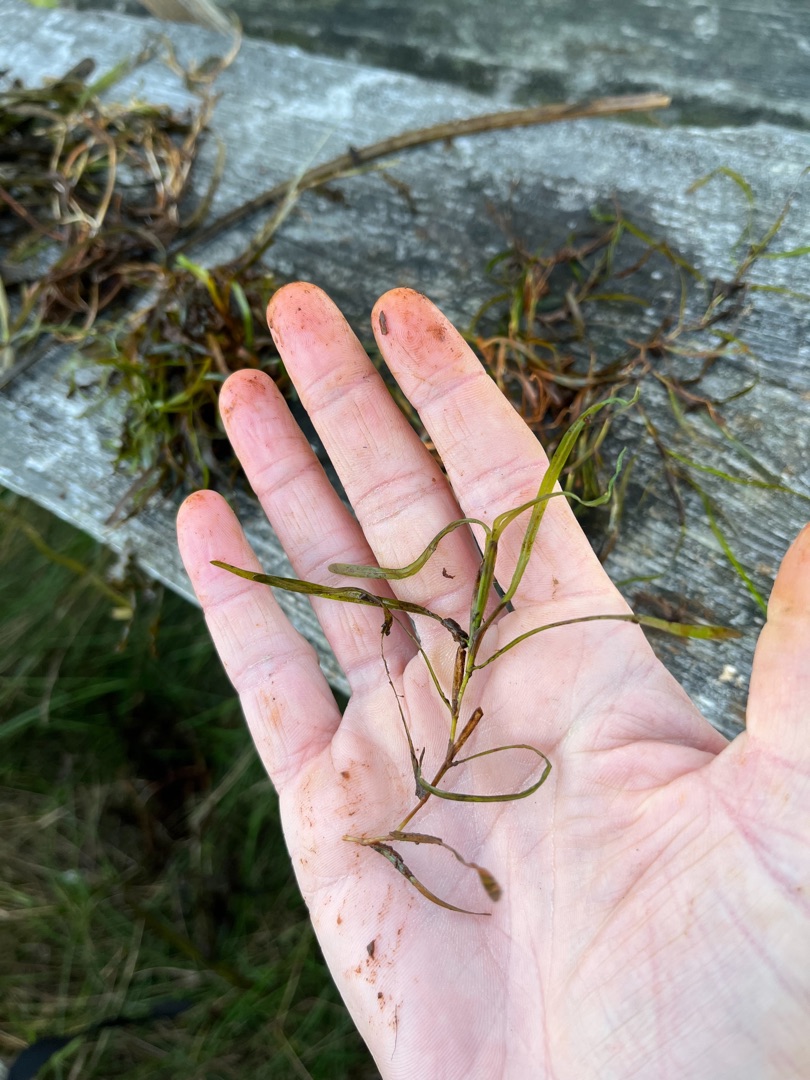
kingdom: Plantae
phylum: Tracheophyta
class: Liliopsida
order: Alismatales
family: Potamogetonaceae
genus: Potamogeton
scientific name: Potamogeton berchtoldii
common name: Liden vandaks
